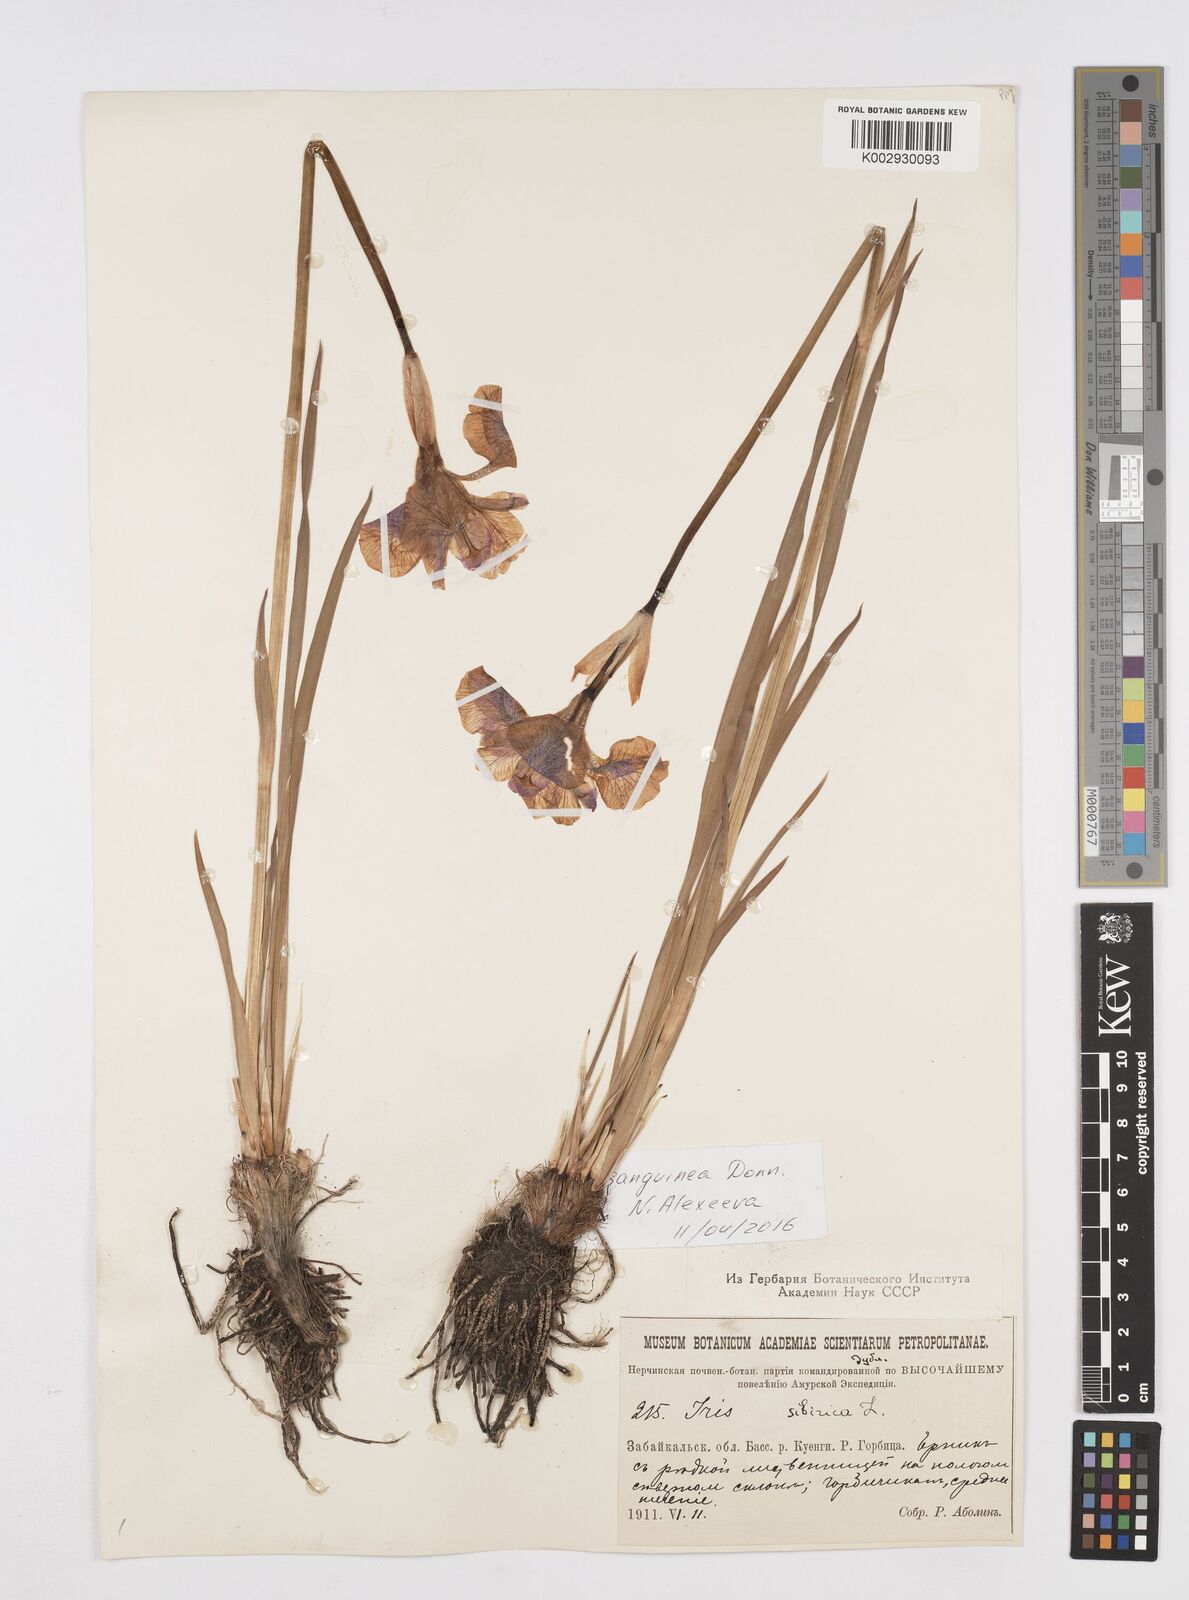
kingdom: Plantae
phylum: Tracheophyta
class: Liliopsida
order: Asparagales
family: Iridaceae
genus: Iris
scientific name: Iris sanguinea
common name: Blood iris
